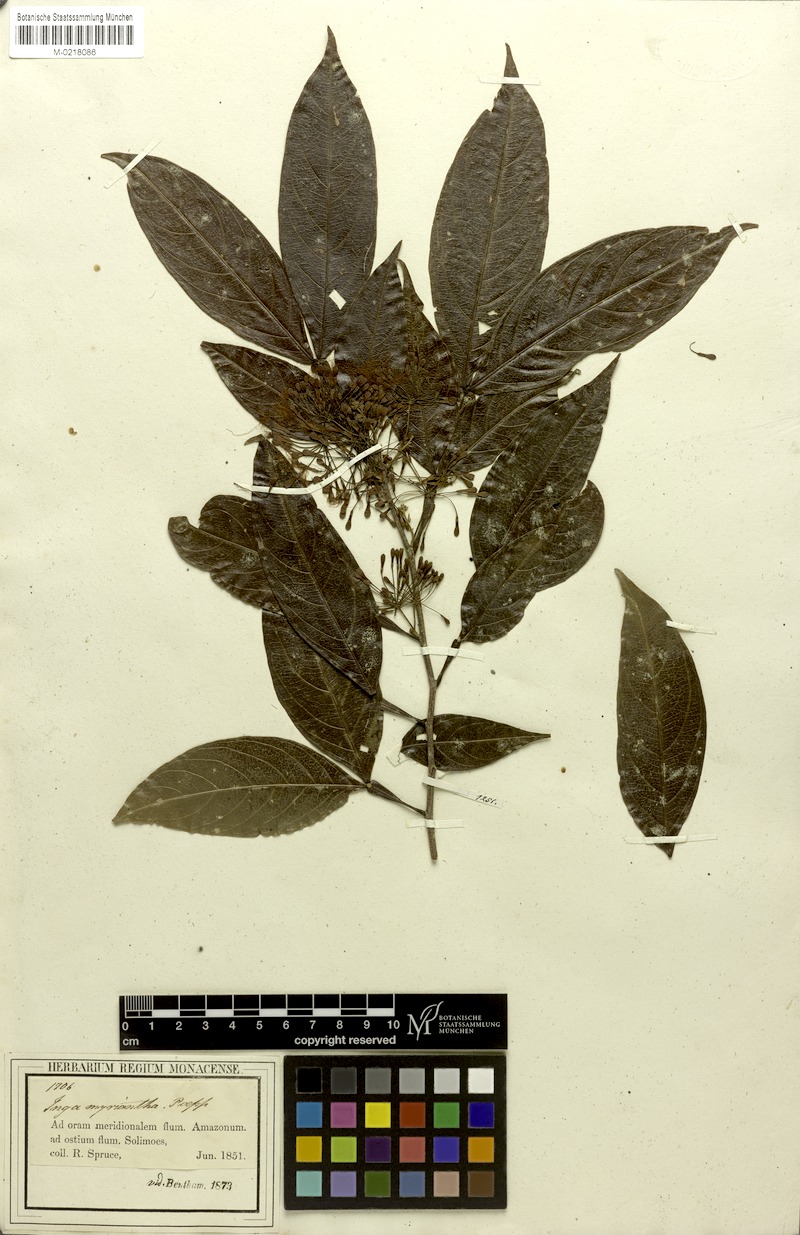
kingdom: Plantae
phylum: Tracheophyta
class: Magnoliopsida
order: Fabales
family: Fabaceae
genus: Inga
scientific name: Inga umbellifera
